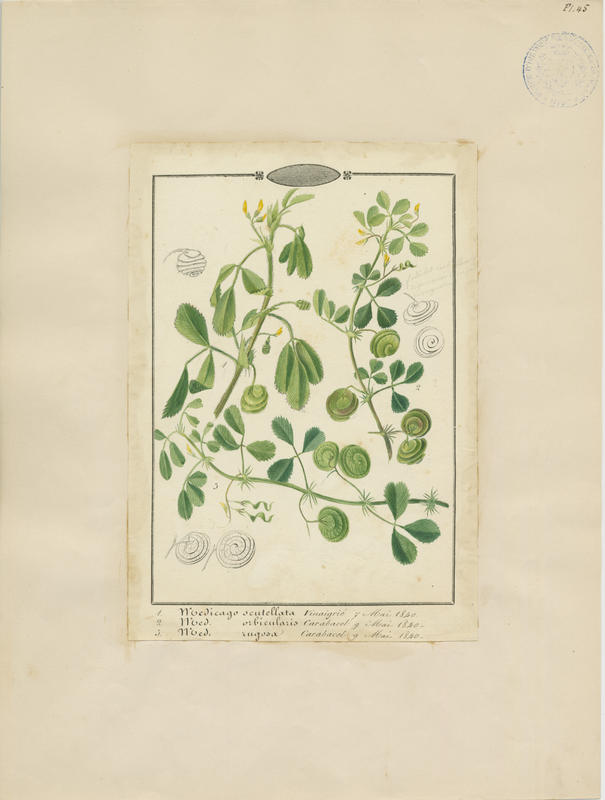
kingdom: Plantae
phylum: Tracheophyta
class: Magnoliopsida
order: Fabales
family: Fabaceae
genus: Medicago
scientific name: Medicago rugosa
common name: Gama medic
